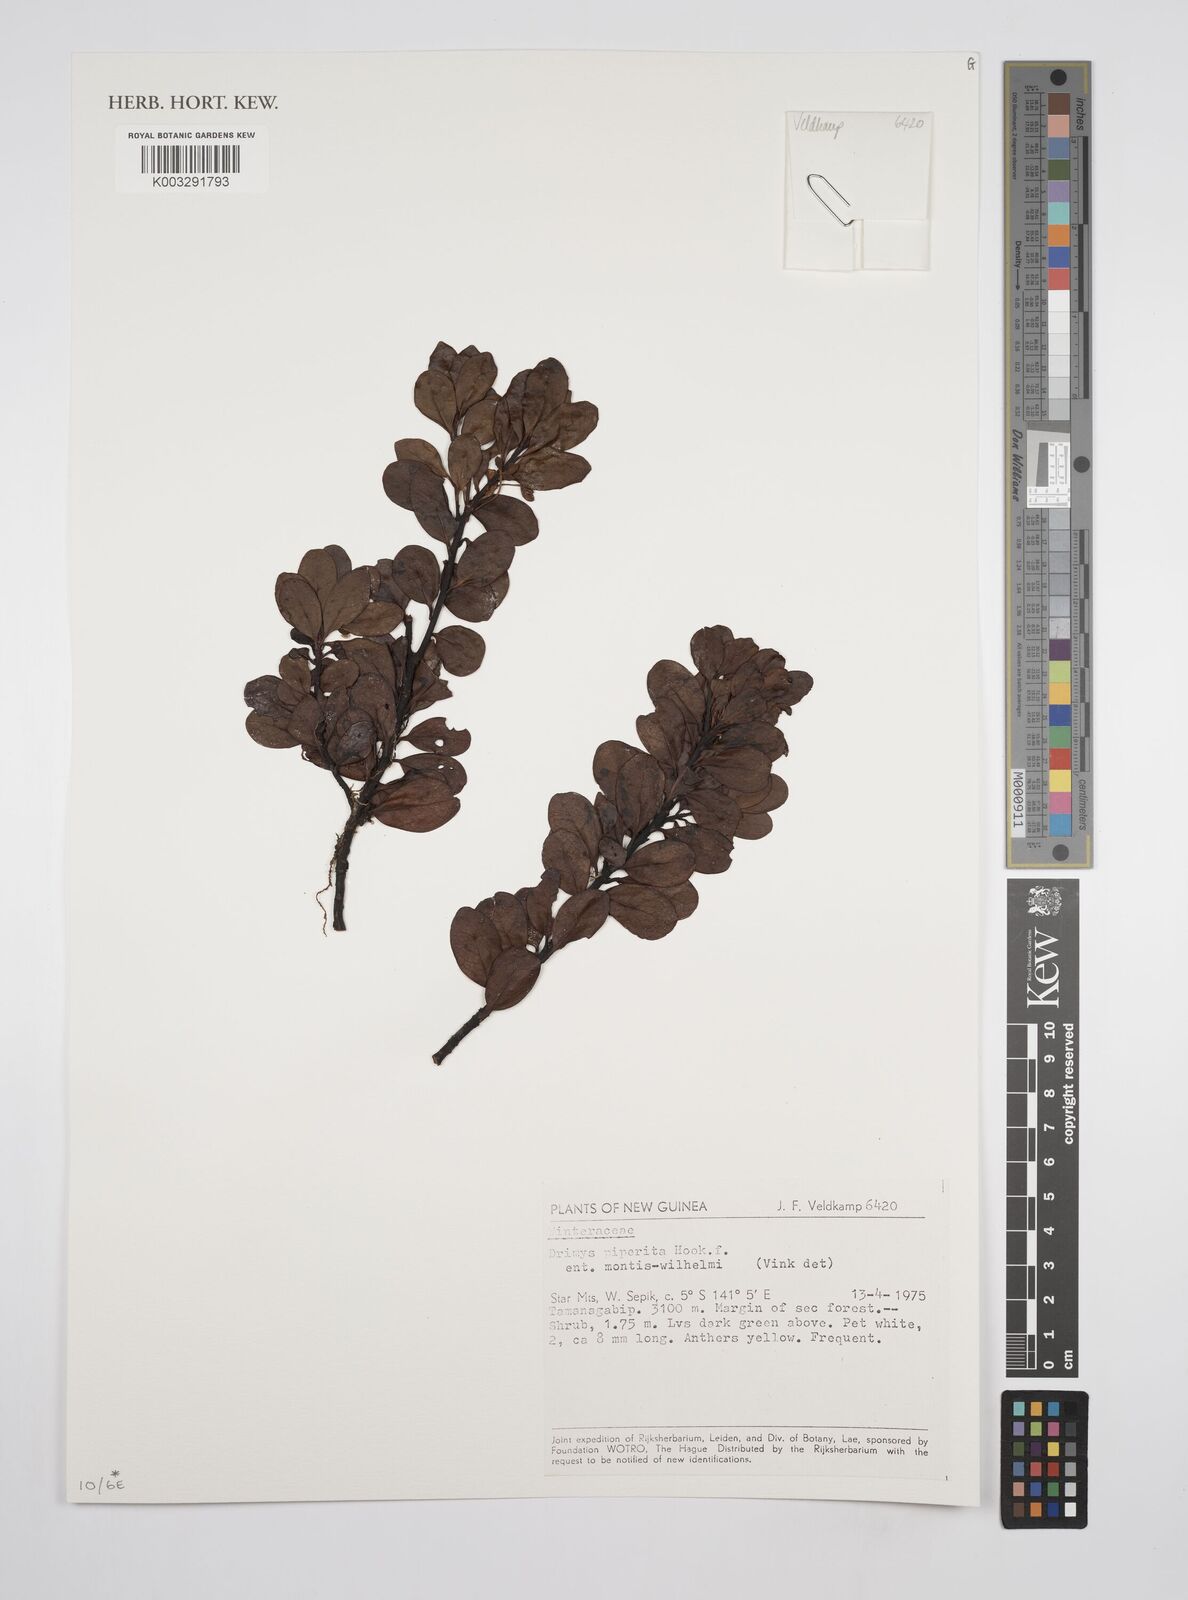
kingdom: Plantae
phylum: Tracheophyta
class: Magnoliopsida
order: Canellales
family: Winteraceae
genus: Drimys
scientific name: Drimys piperita
